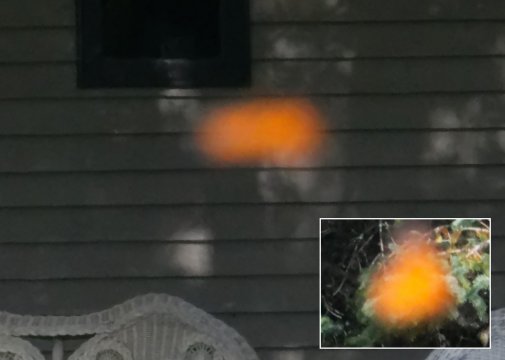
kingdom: Animalia
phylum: Arthropoda
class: Insecta
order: Lepidoptera
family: Nymphalidae
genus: Danaus
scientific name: Danaus plexippus
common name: Monarch
